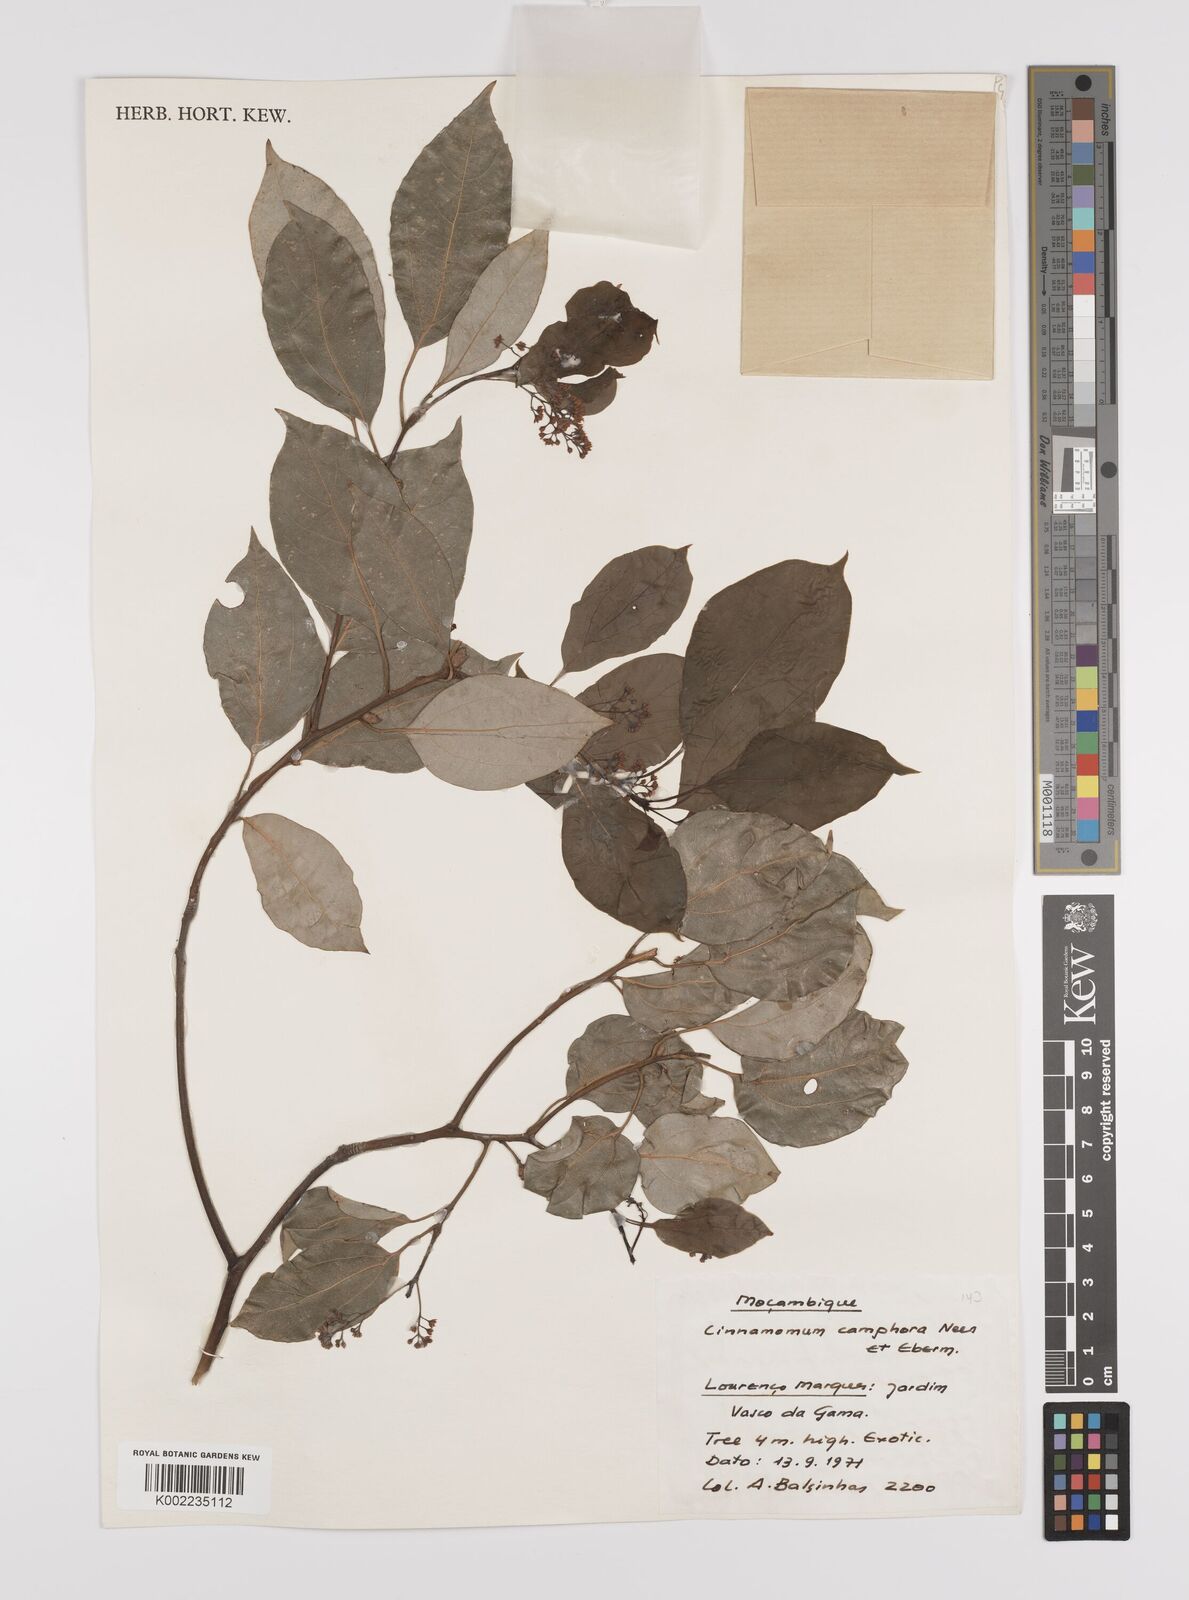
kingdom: Plantae
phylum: Tracheophyta
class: Magnoliopsida
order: Laurales
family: Lauraceae
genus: Cinnamomum
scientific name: Cinnamomum camphora
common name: Camphortree
